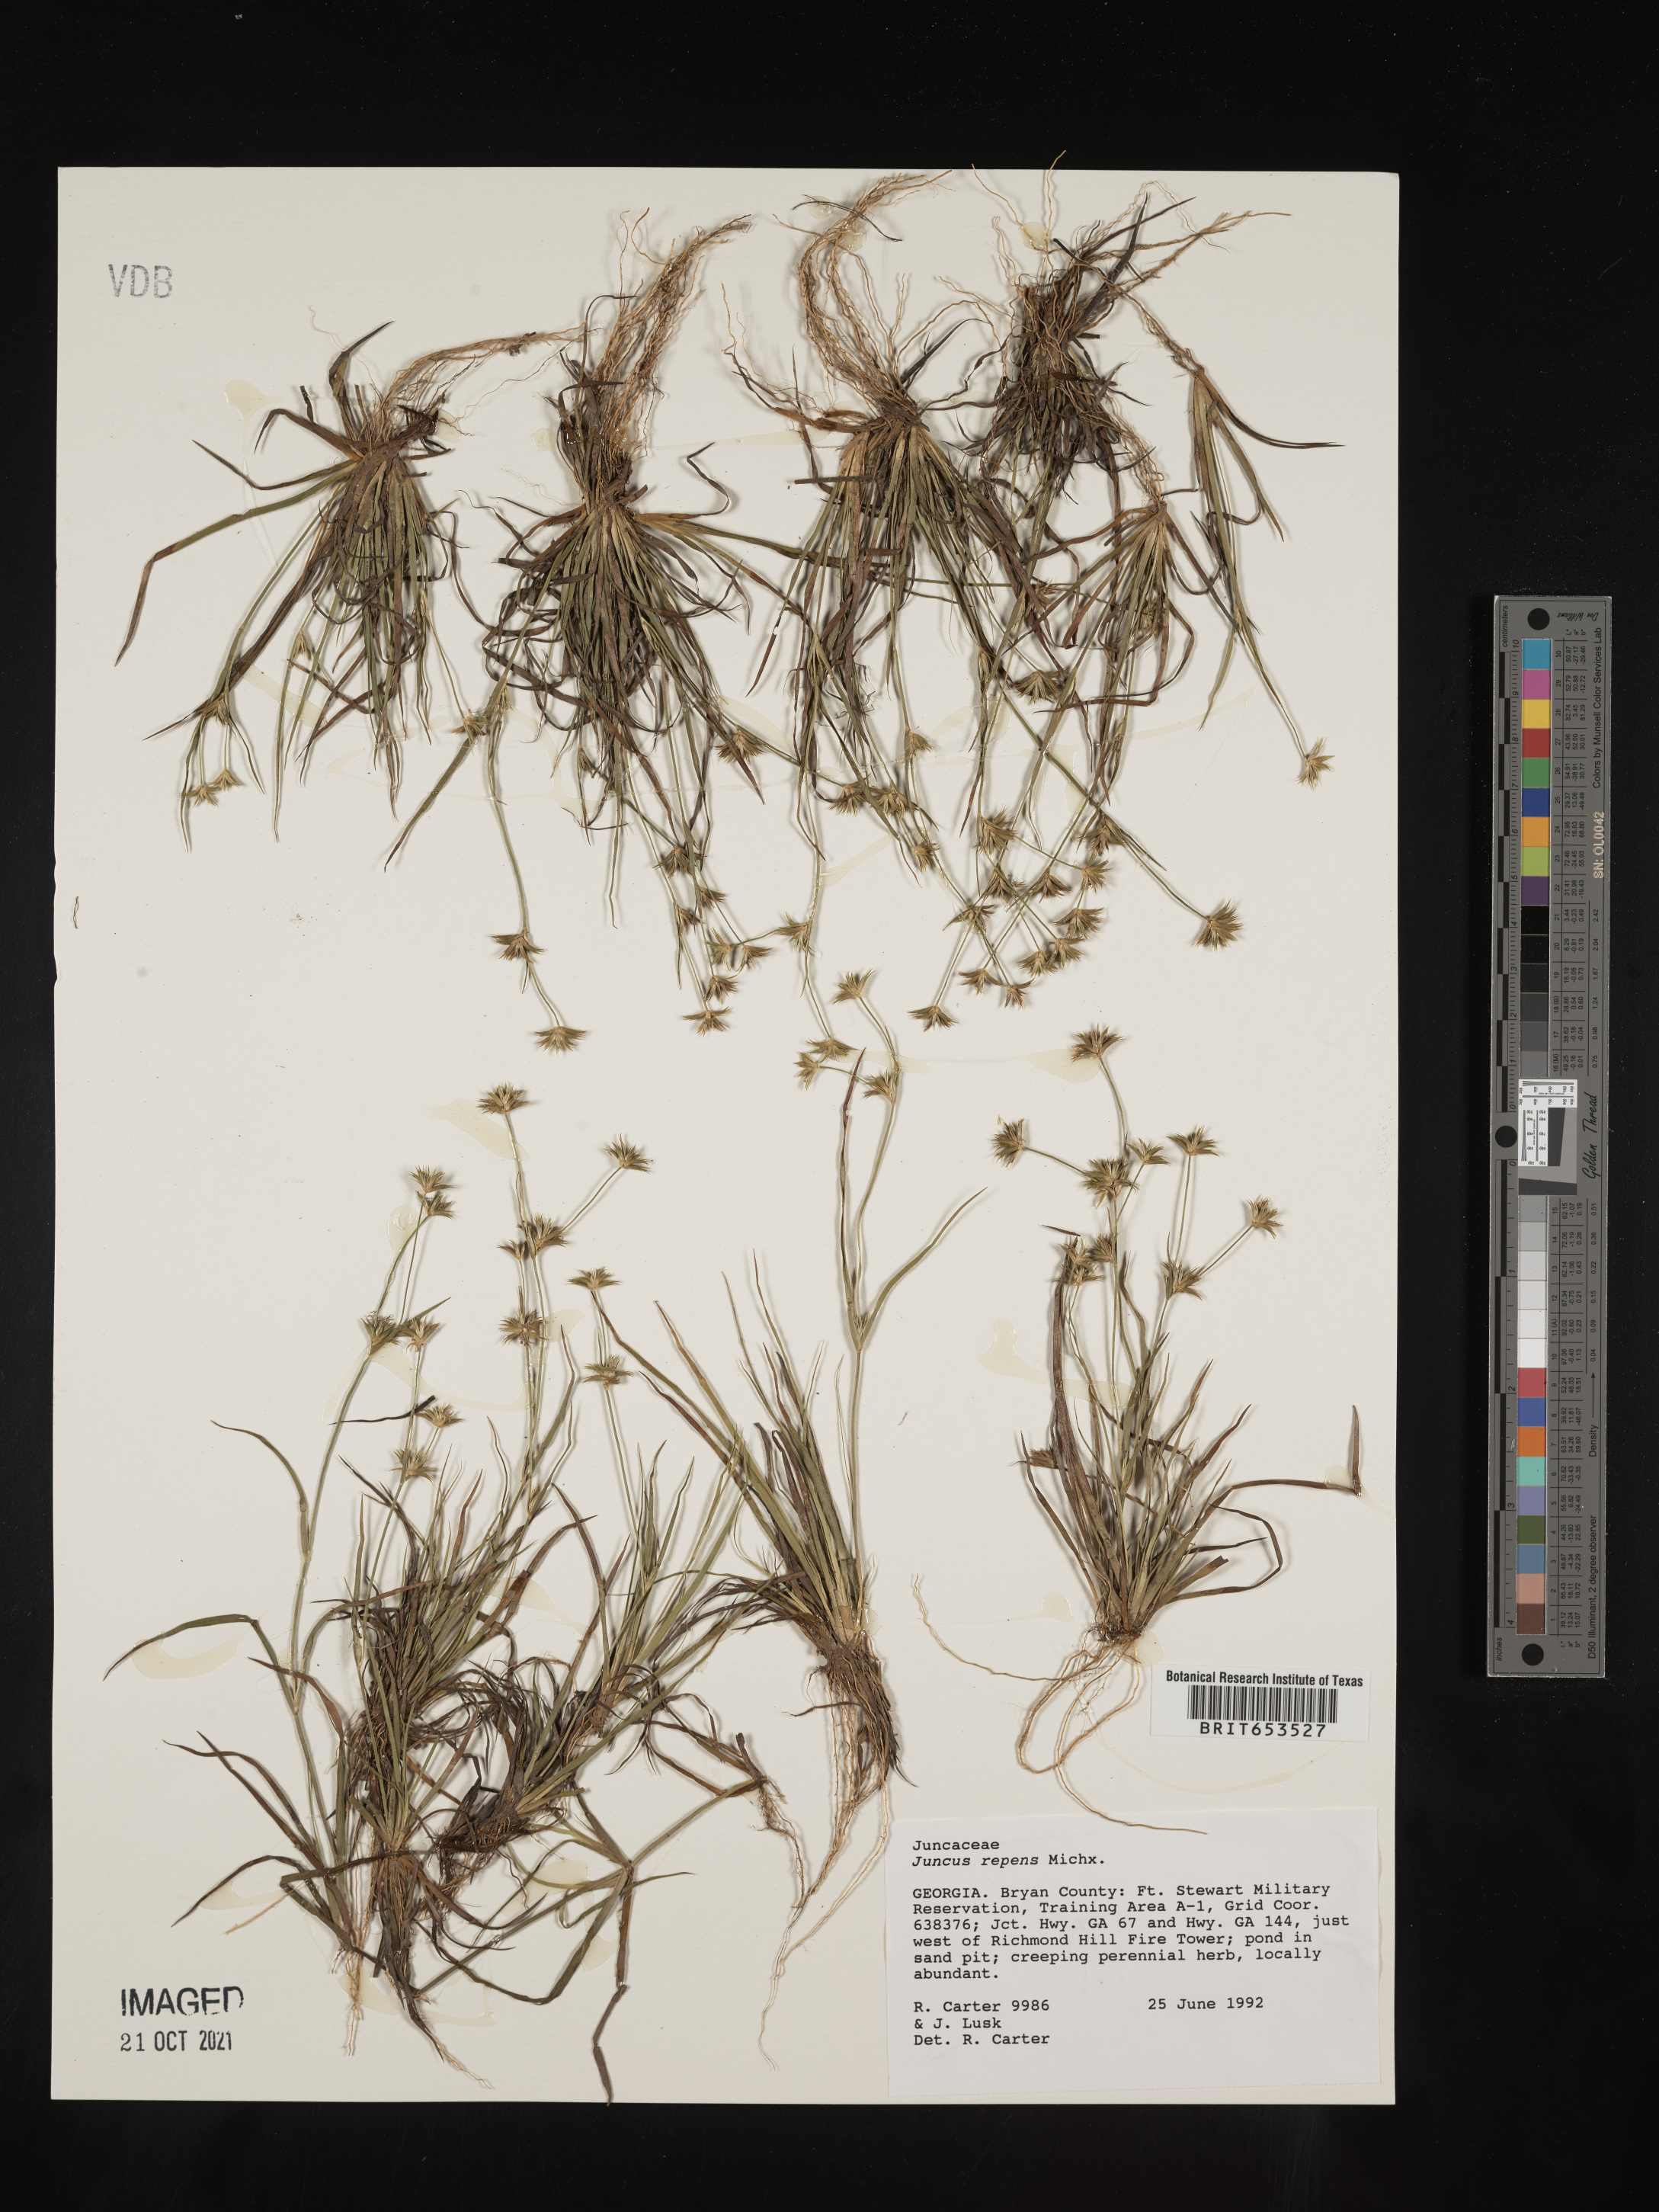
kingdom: Plantae
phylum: Tracheophyta
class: Liliopsida
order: Poales
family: Juncaceae
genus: Juncus
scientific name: Juncus repens
